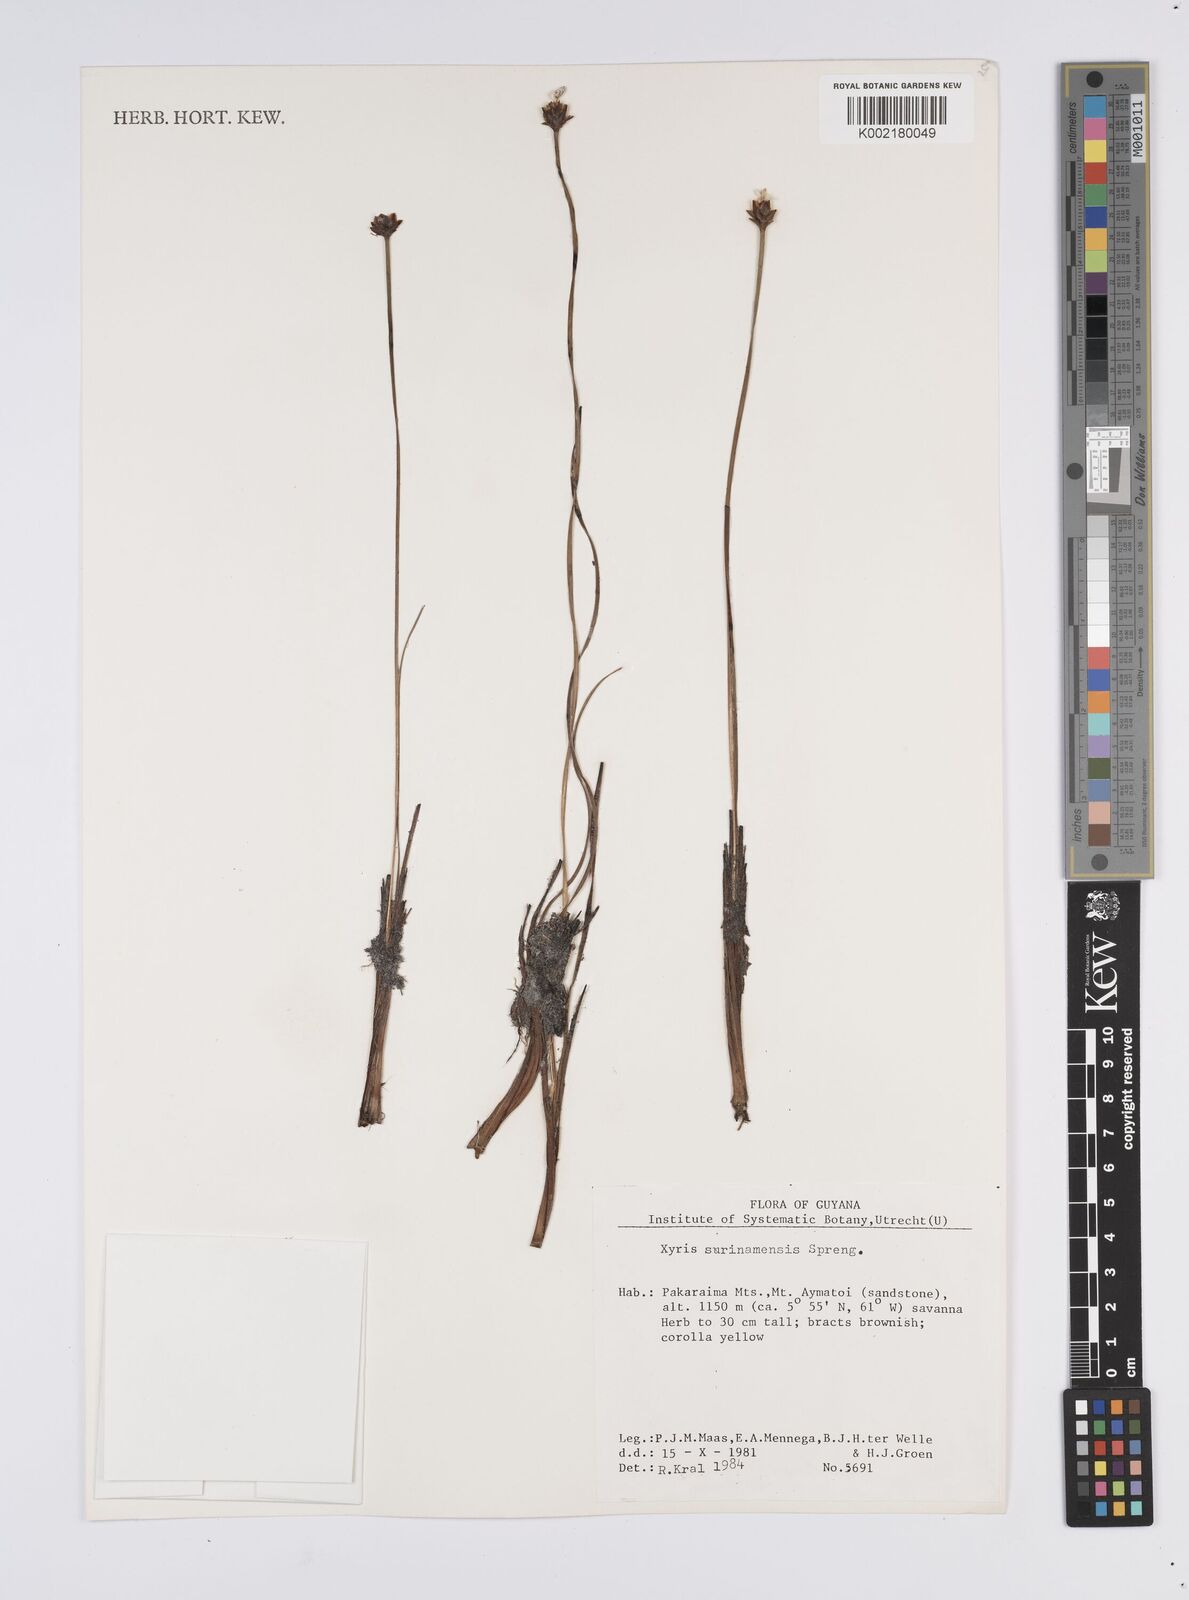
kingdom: Plantae
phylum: Tracheophyta
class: Liliopsida
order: Poales
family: Xyridaceae
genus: Xyris
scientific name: Xyris surinamensis
